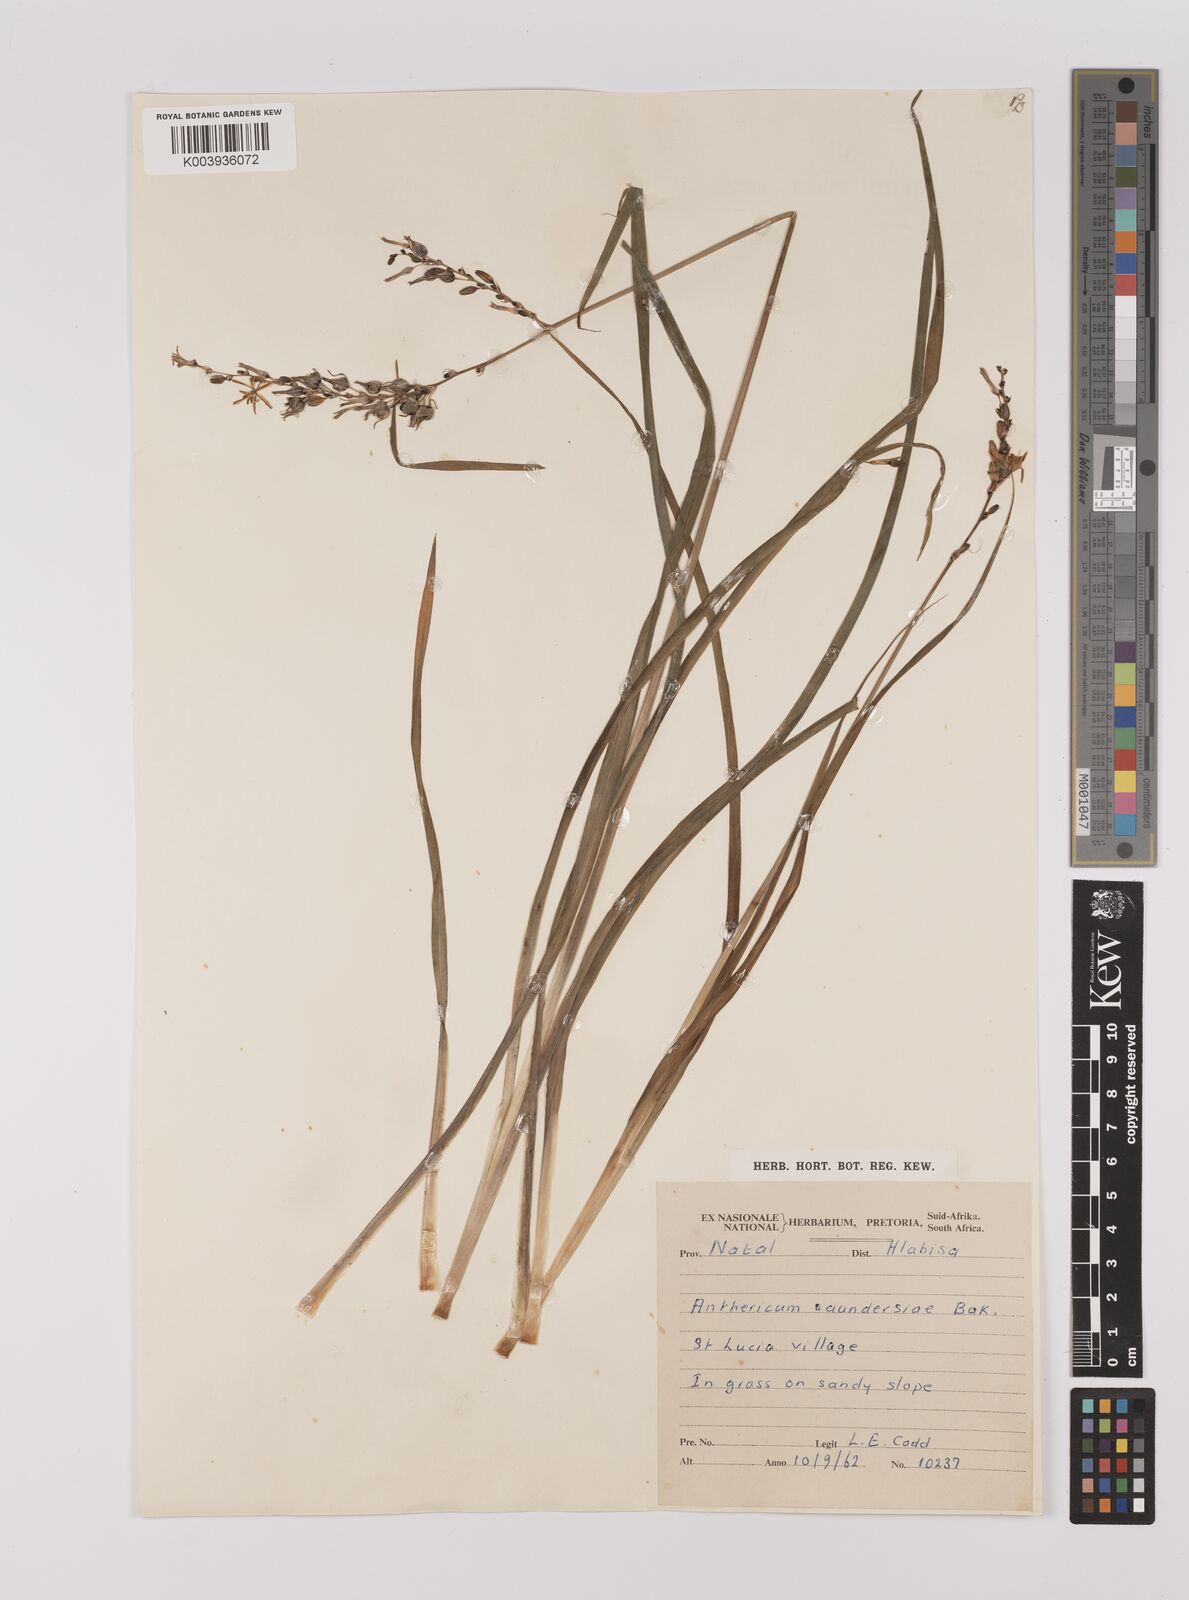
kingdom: Plantae
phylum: Tracheophyta
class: Liliopsida
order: Asparagales
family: Asparagaceae
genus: Chlorophytum
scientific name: Chlorophytum saundersiae
